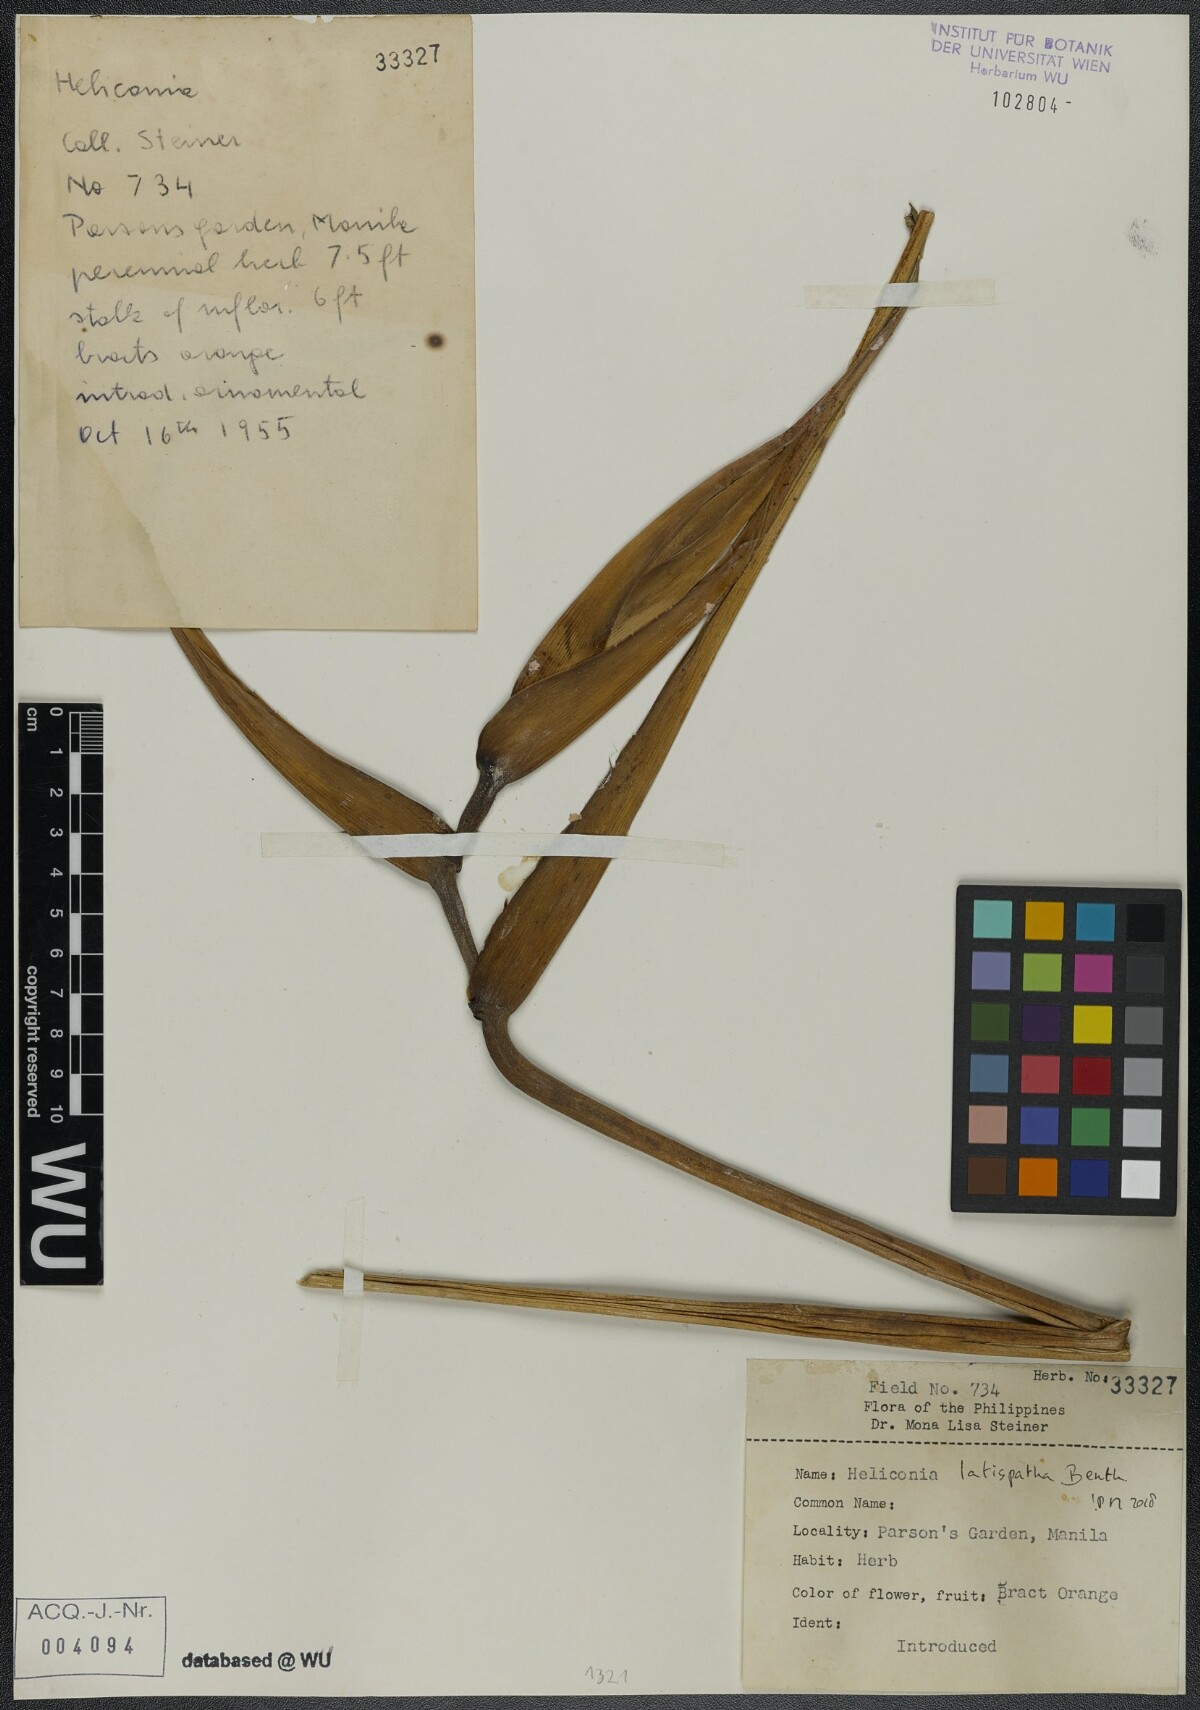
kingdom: Plantae
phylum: Tracheophyta
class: Liliopsida
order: Zingiberales
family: Heliconiaceae
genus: Heliconia
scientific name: Heliconia latispatha
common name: Expanded lobsterclaw
